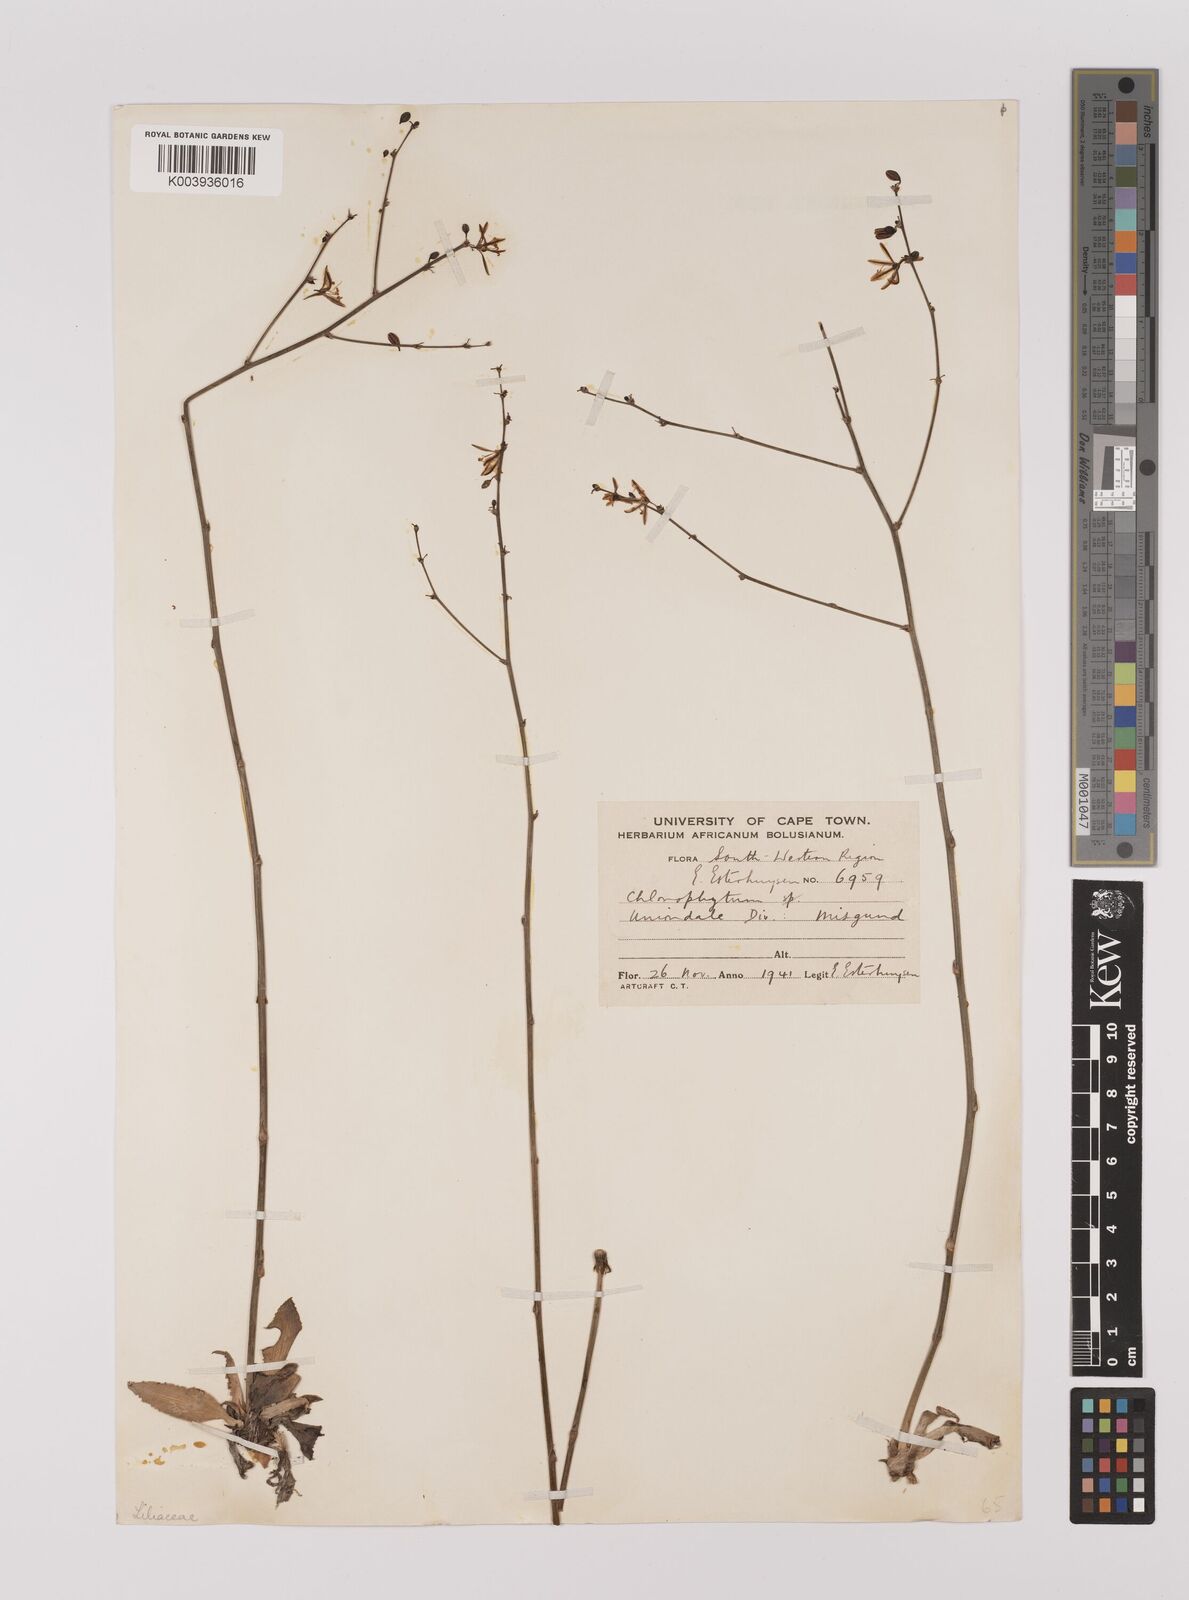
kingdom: Plantae
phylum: Tracheophyta
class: Liliopsida
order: Asparagales
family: Asparagaceae
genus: Chlorophytum
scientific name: Chlorophytum crispum
